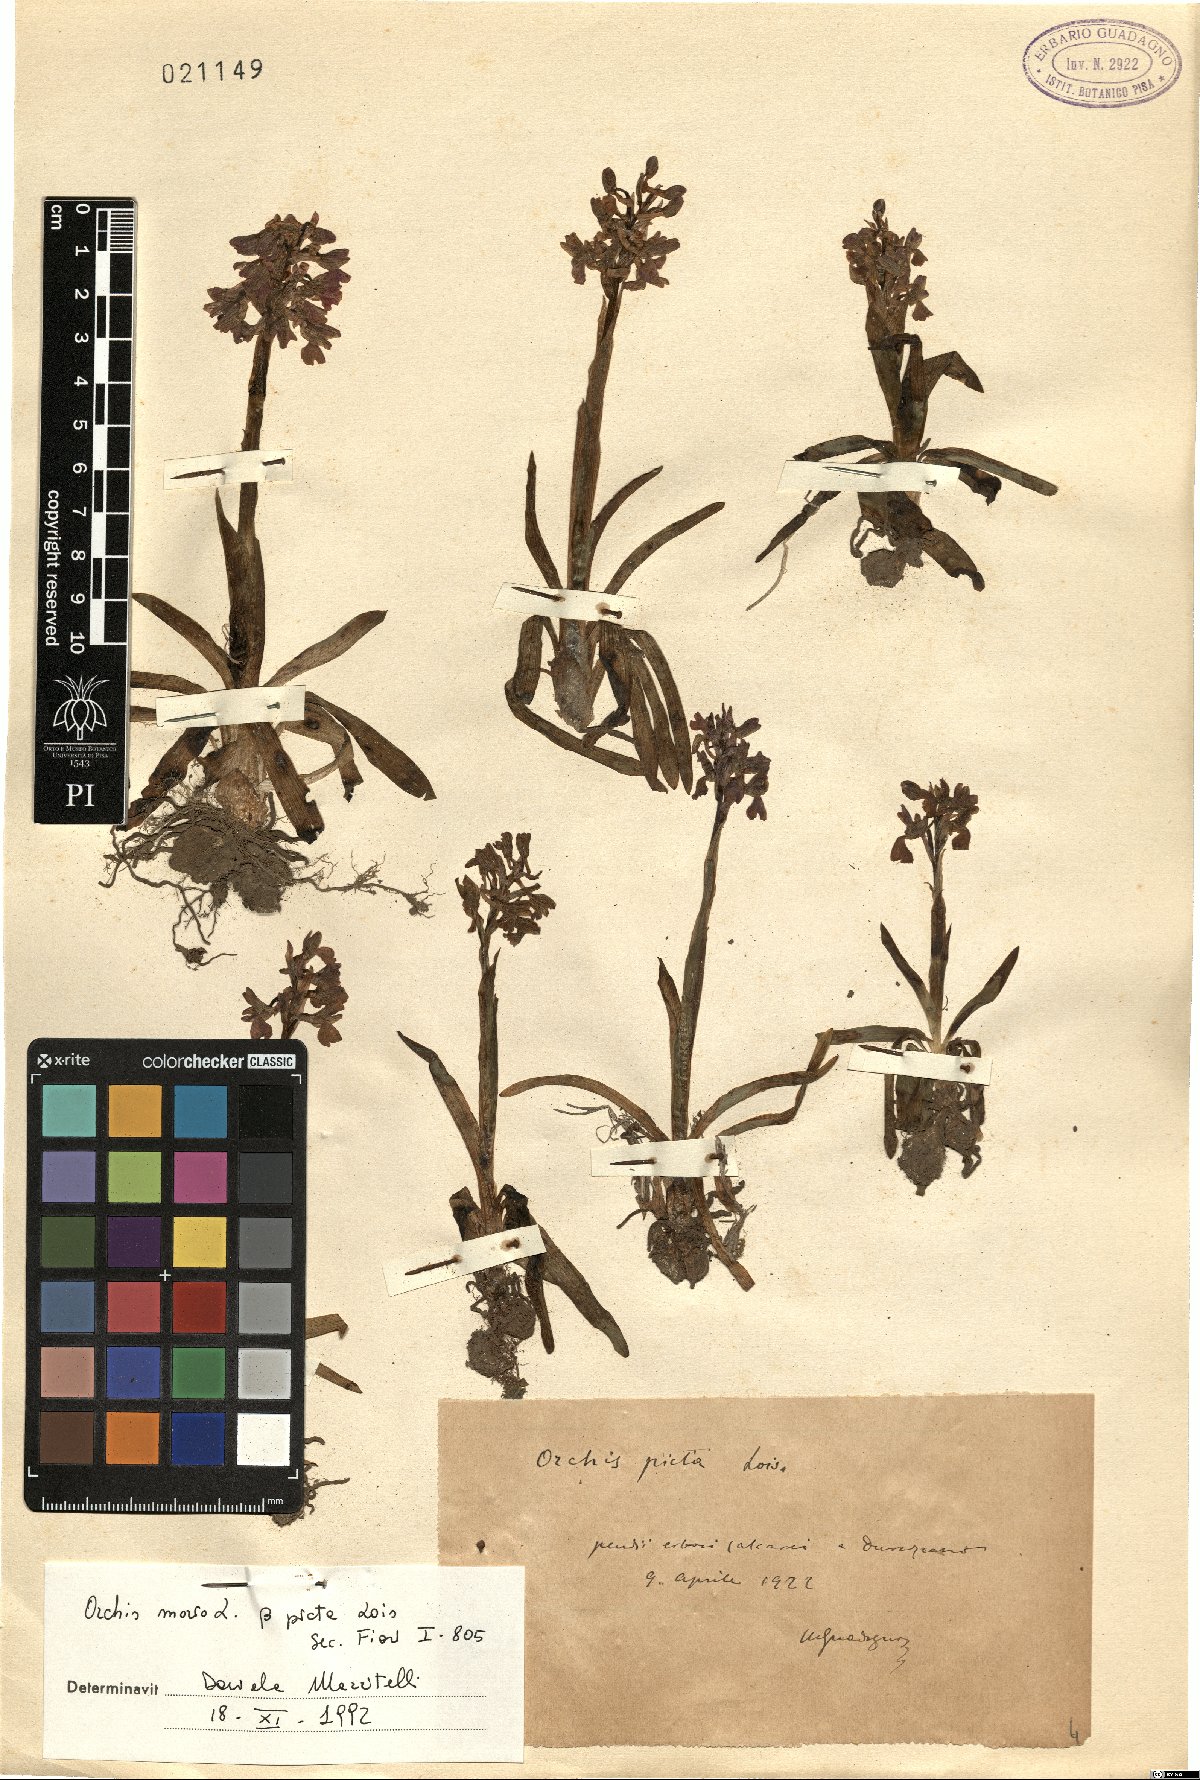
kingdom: Plantae
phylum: Tracheophyta
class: Liliopsida
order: Asparagales
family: Orchidaceae
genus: Anacamptis
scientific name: Anacamptis morio
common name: Green-winged orchid
